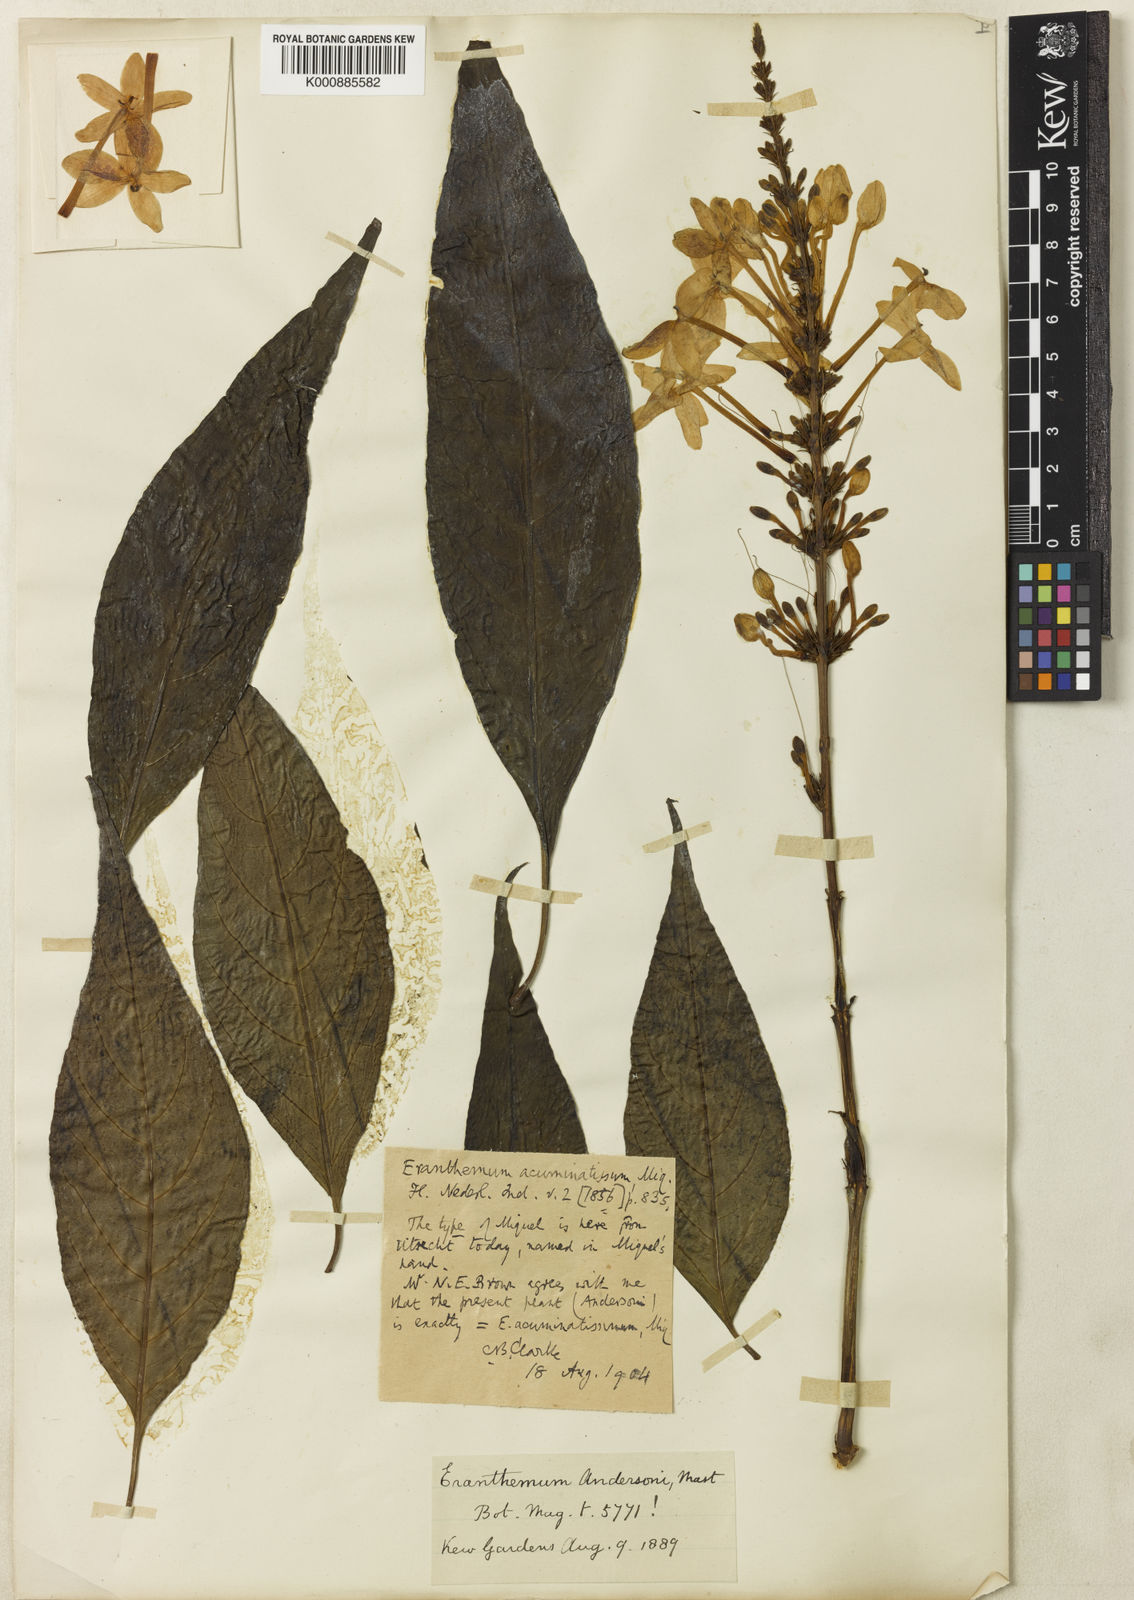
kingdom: Plantae
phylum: Tracheophyta
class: Magnoliopsida
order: Lamiales
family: Acanthaceae
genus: Pseuderanthemum
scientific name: Pseuderanthemum acuminatissimum
